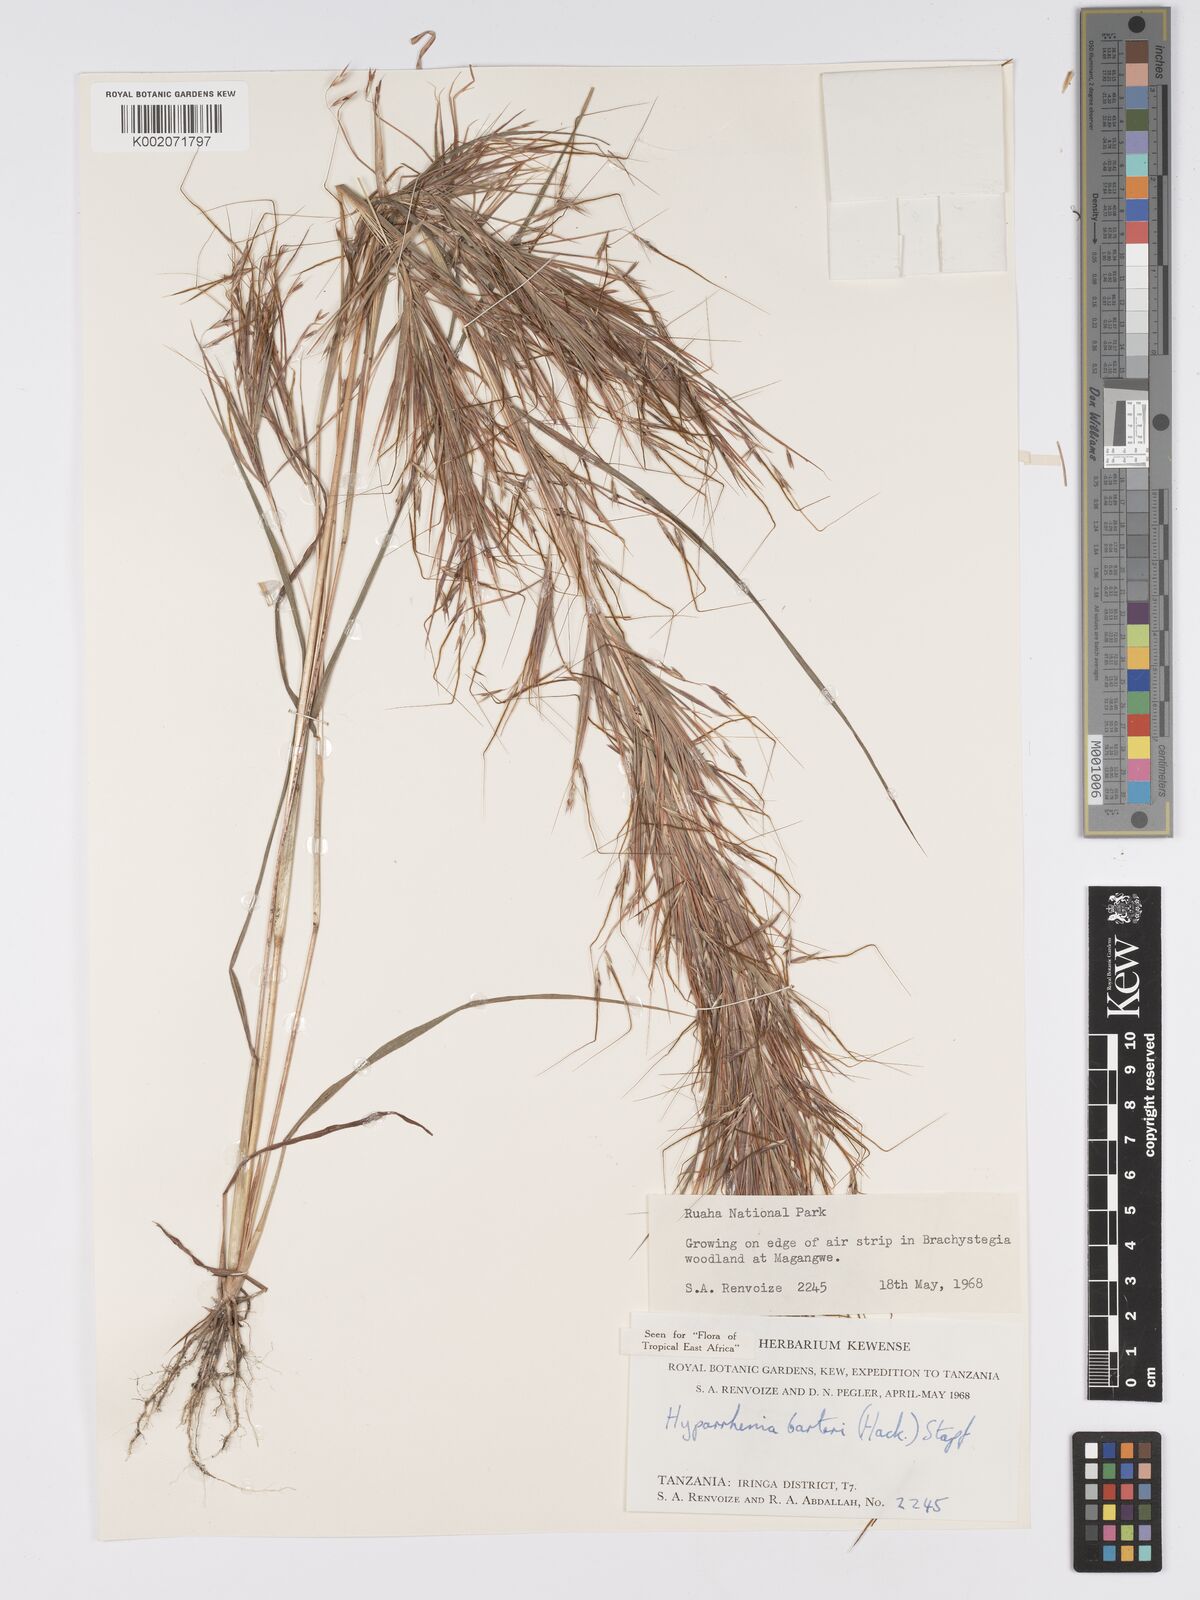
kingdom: Plantae
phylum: Tracheophyta
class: Liliopsida
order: Poales
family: Poaceae
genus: Hyparrhenia
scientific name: Hyparrhenia barteri
